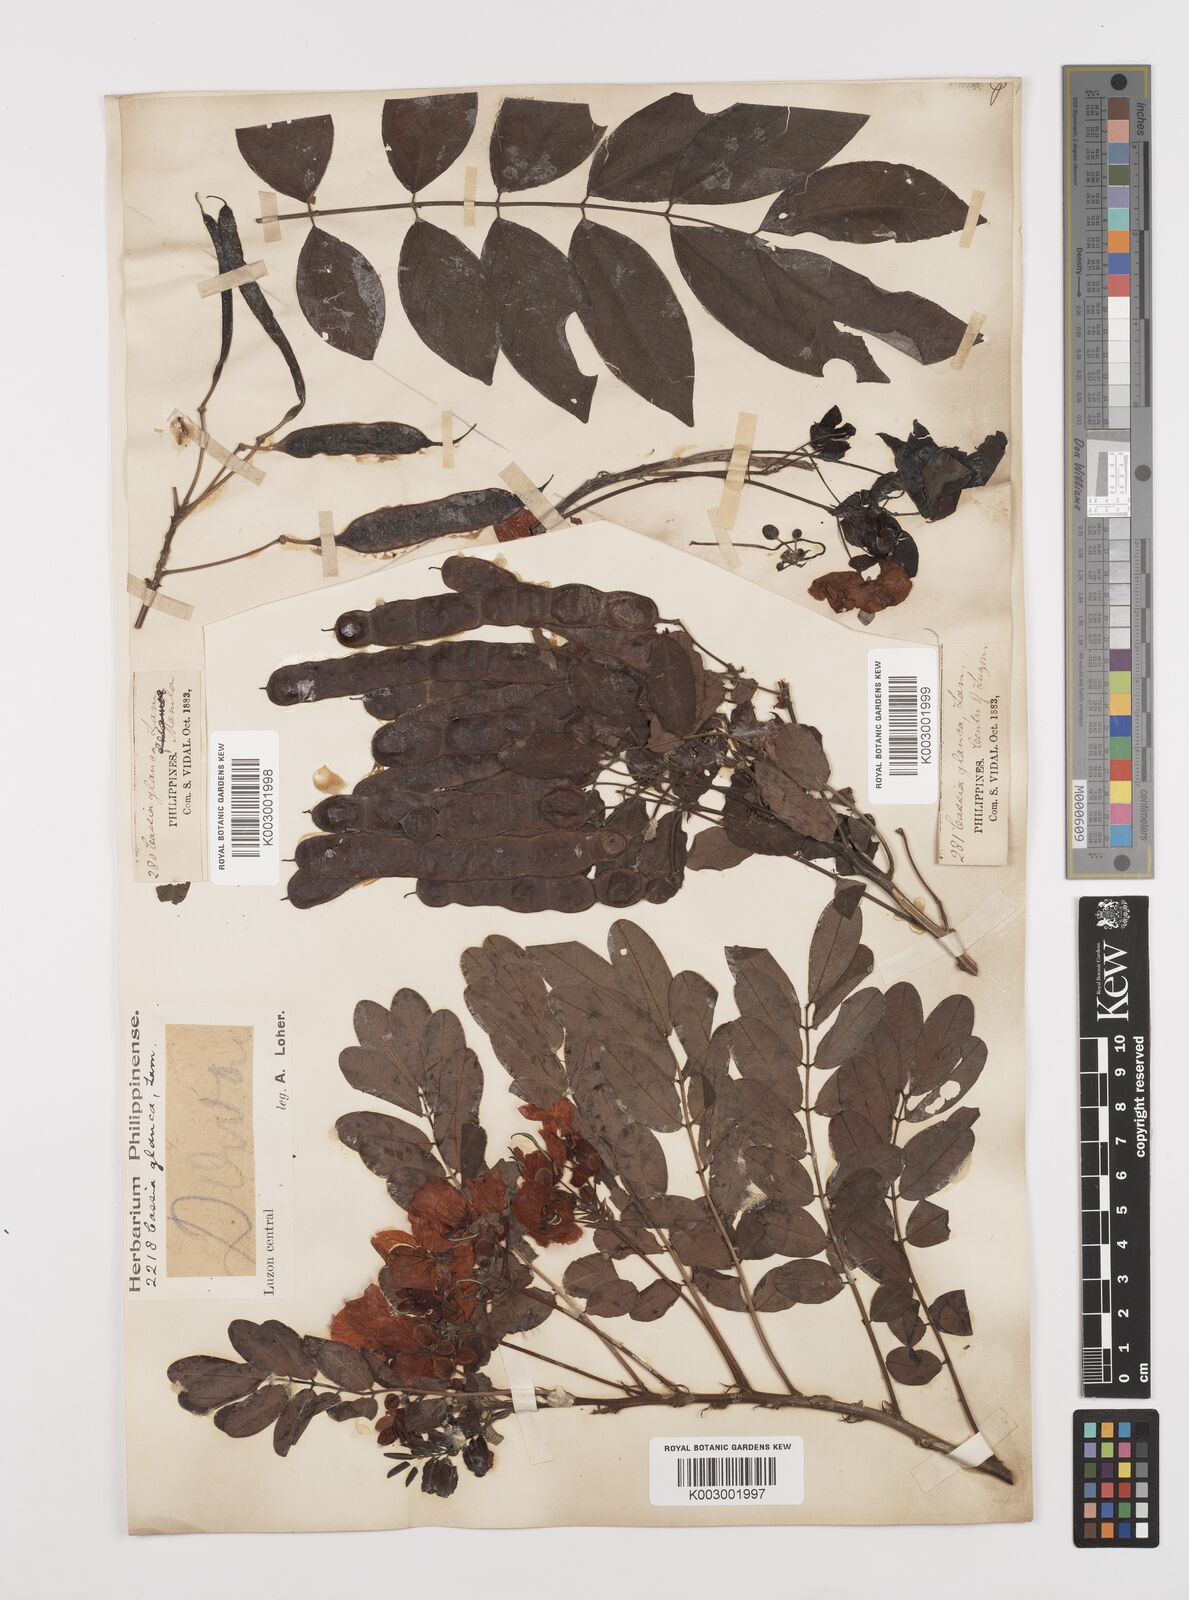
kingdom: Plantae
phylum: Tracheophyta
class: Magnoliopsida
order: Fabales
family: Fabaceae
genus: Senna
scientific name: Senna surattensis
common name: Glossy shower
